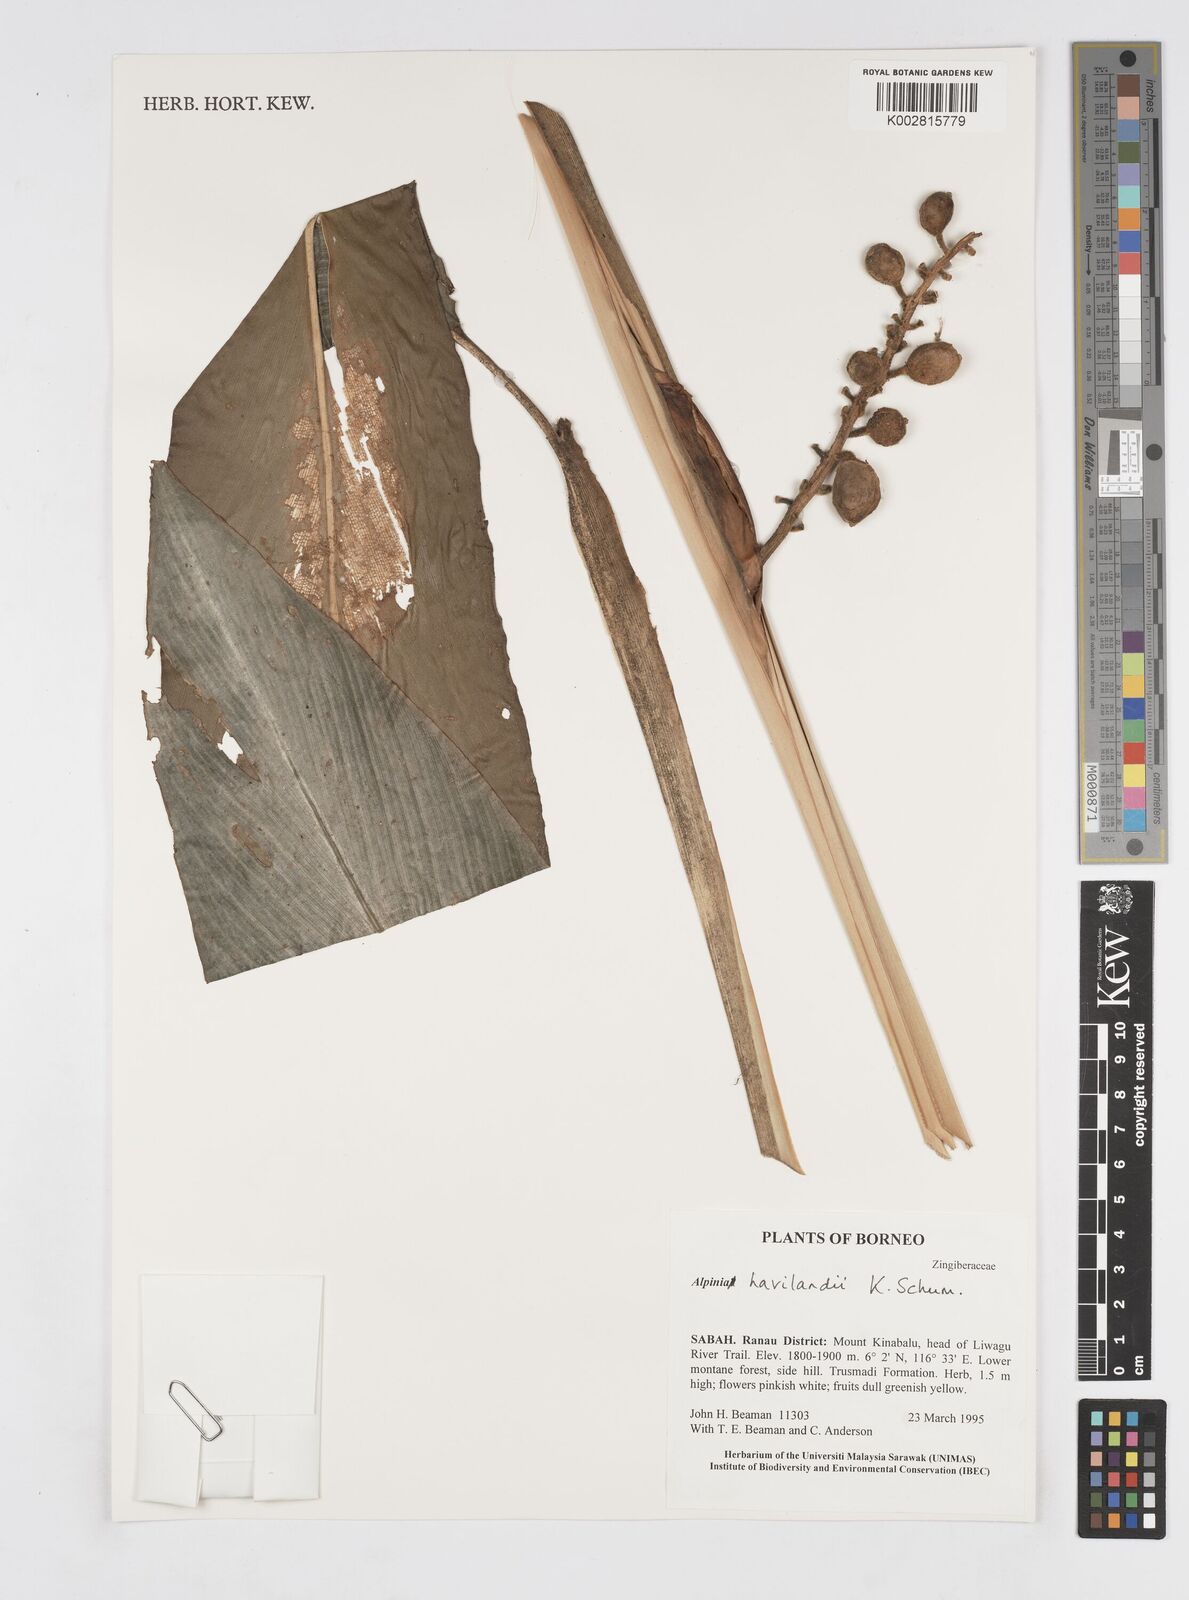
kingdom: Plantae
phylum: Tracheophyta
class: Liliopsida
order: Zingiberales
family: Zingiberaceae
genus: Alpinia
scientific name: Alpinia havilandii
